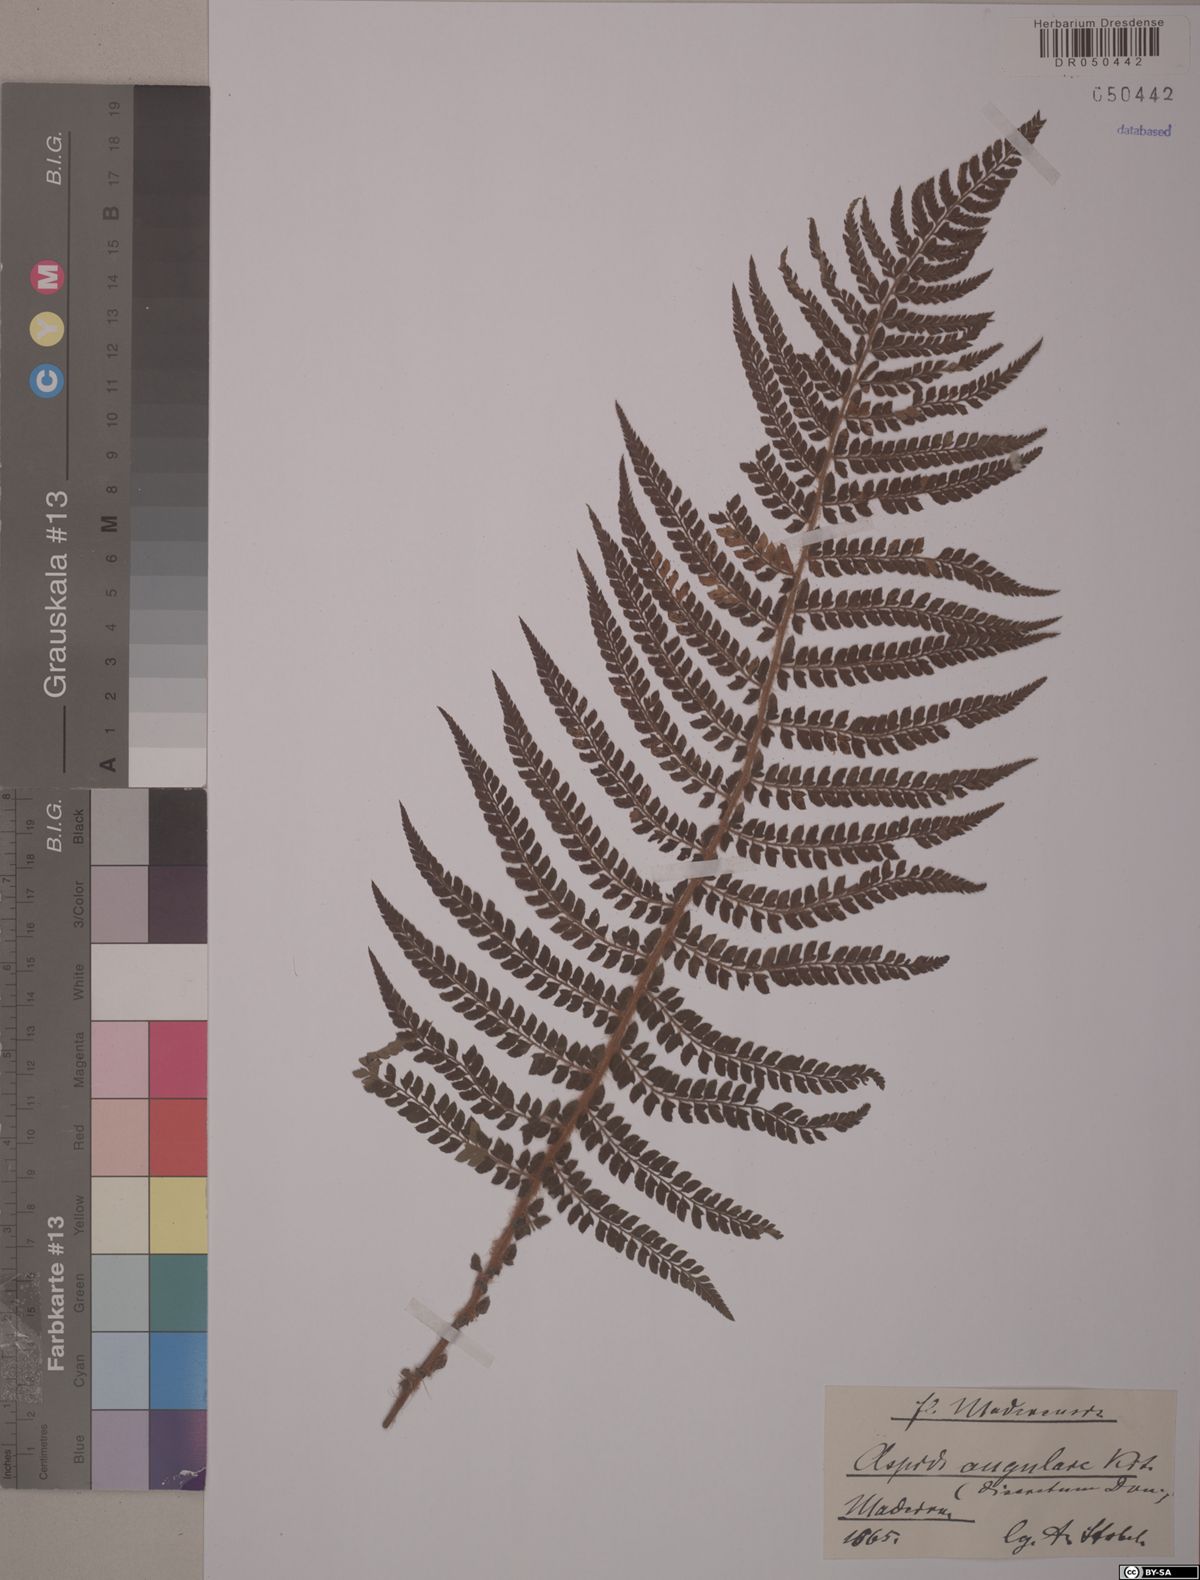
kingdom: Plantae
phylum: Tracheophyta
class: Polypodiopsida
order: Polypodiales
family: Dryopteridaceae
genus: Polystichum
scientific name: Polystichum setiferum
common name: Soft shield-fern
